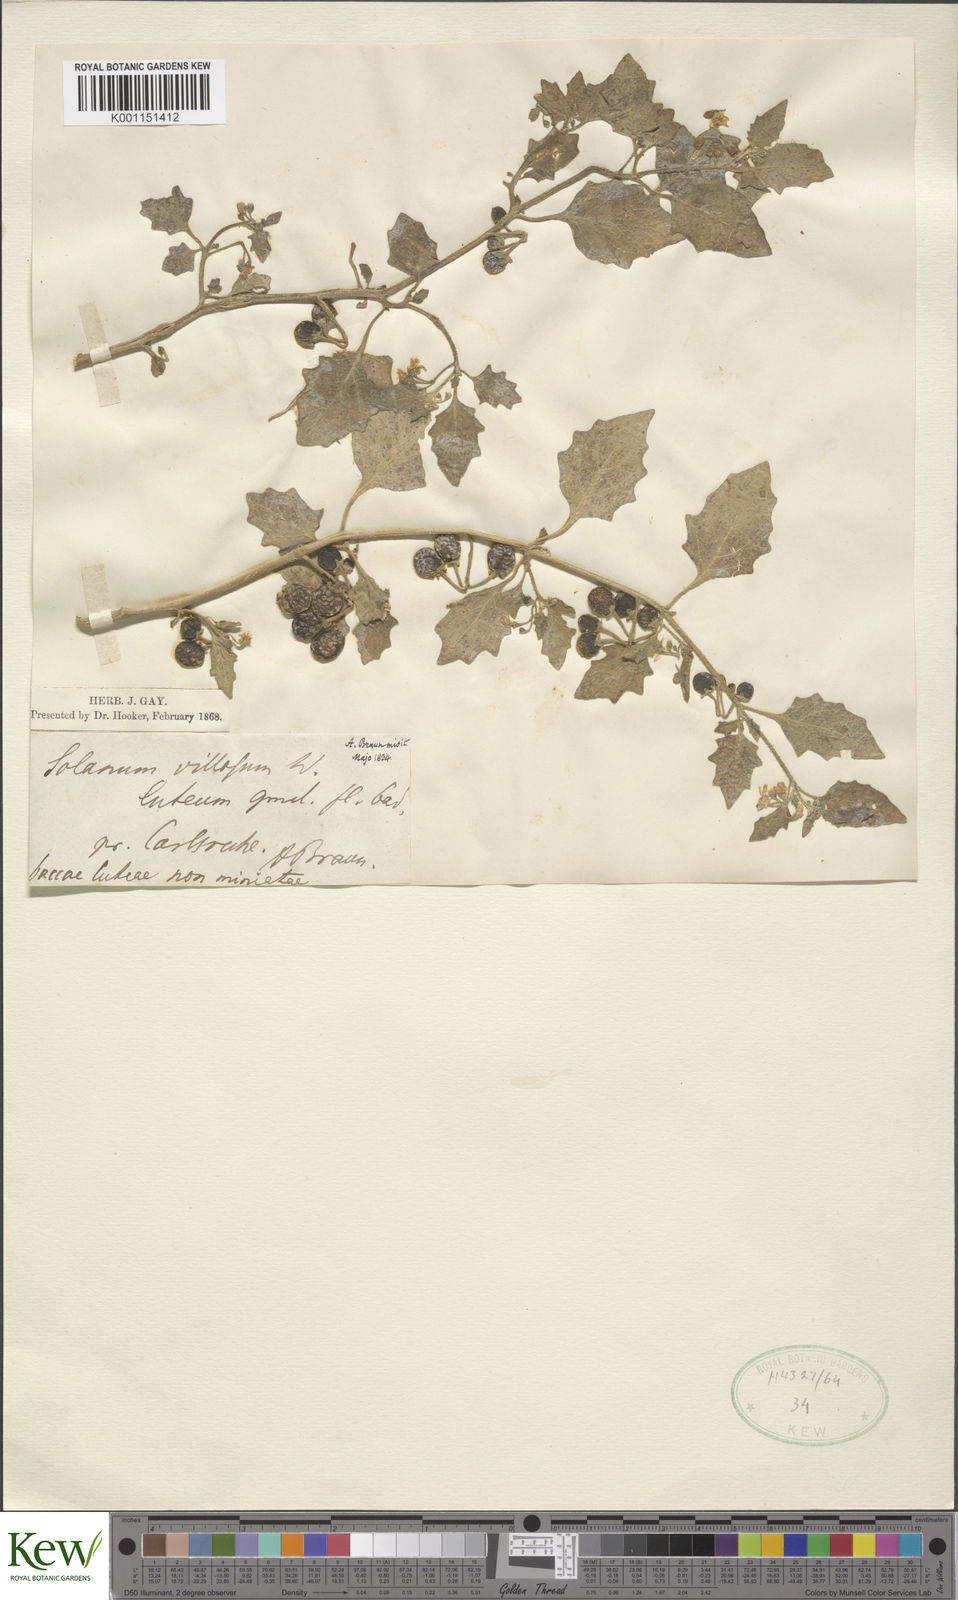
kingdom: Plantae
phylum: Tracheophyta
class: Magnoliopsida
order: Solanales
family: Solanaceae
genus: Solanum
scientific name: Solanum villosum
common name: Red nightshade
